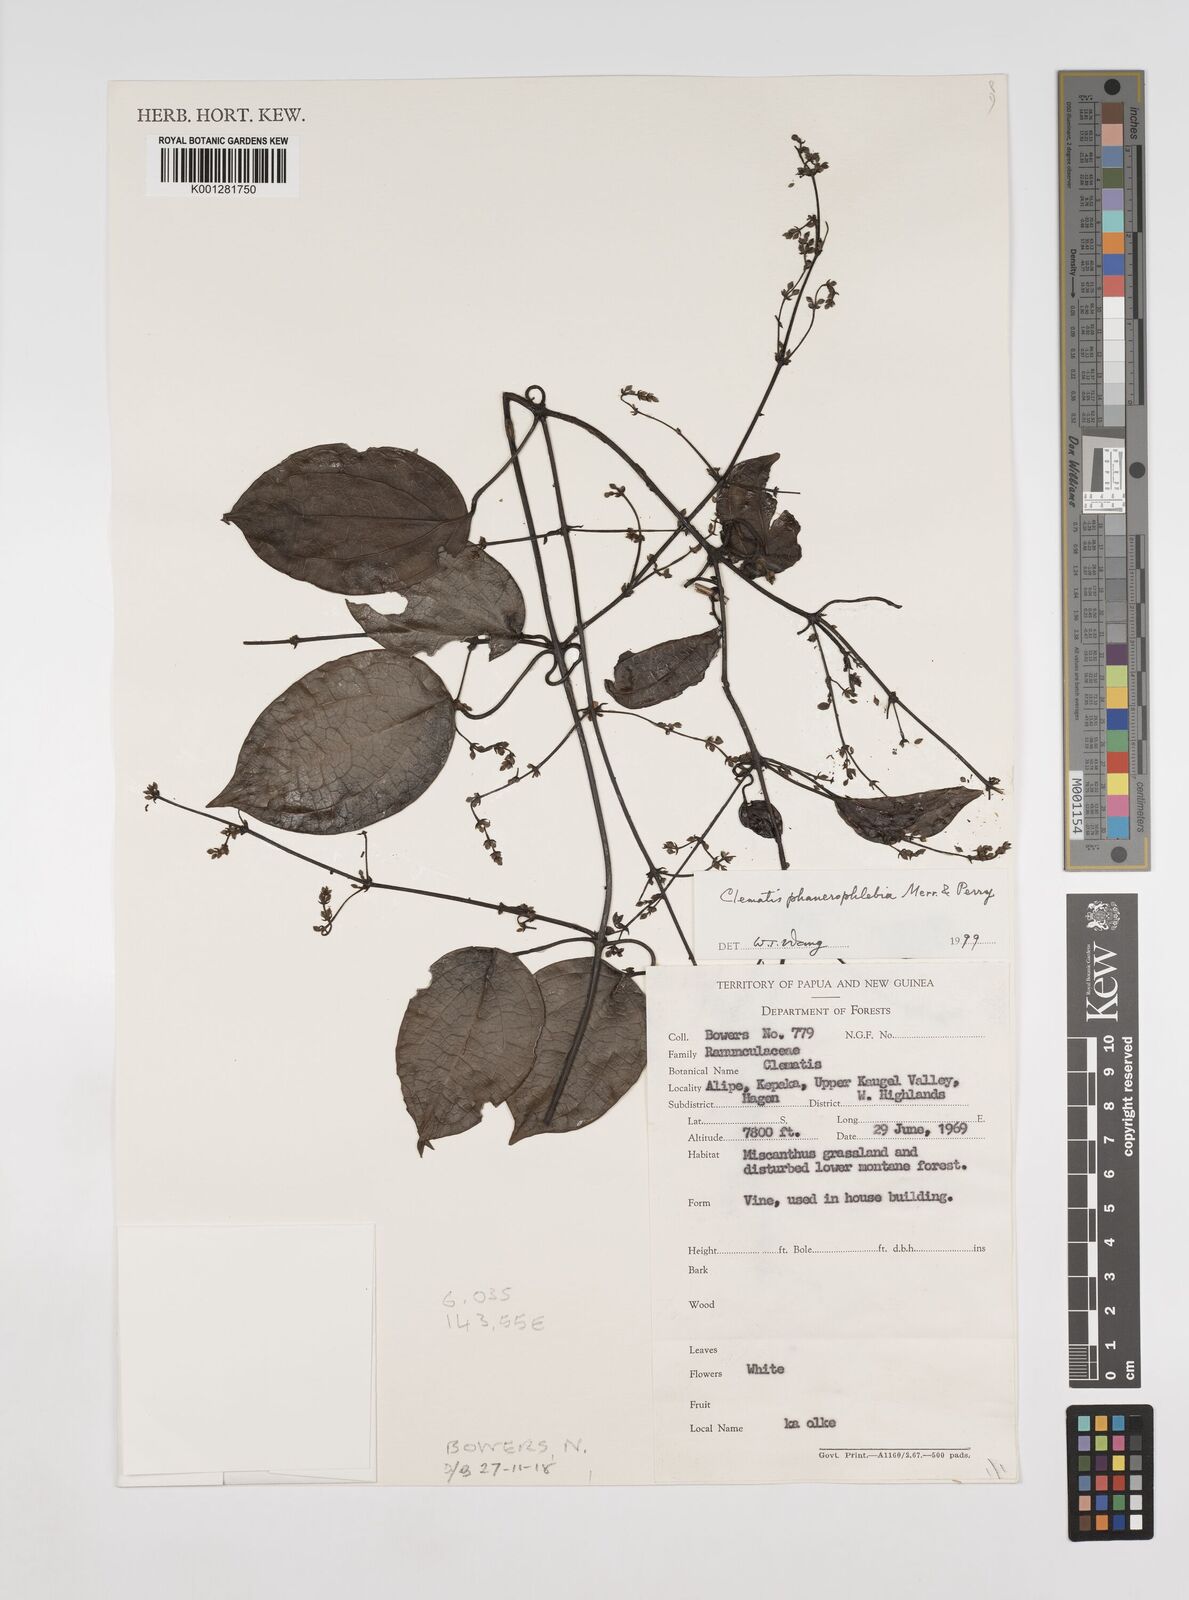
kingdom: Plantae
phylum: Tracheophyta
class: Magnoliopsida
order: Ranunculales
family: Ranunculaceae
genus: Clematis
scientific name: Clematis phanerophlebia
